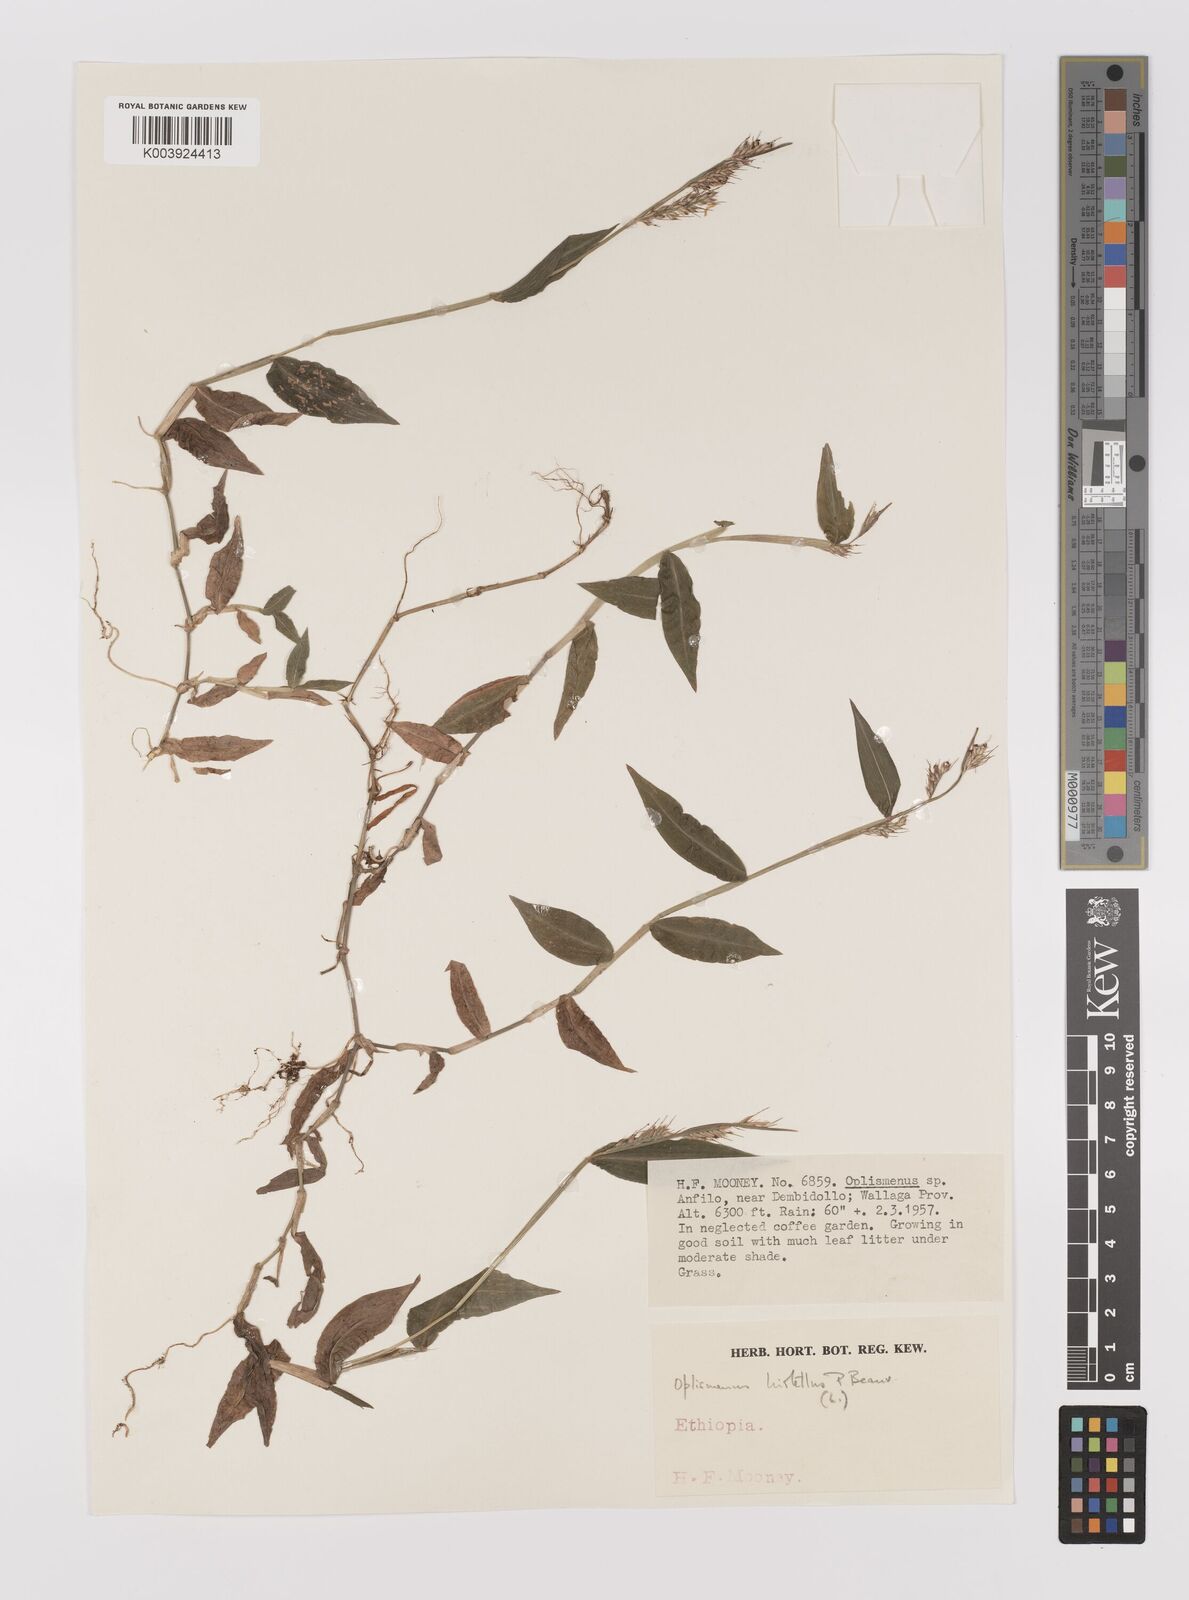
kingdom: Plantae
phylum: Tracheophyta
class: Liliopsida
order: Poales
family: Poaceae
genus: Oplismenus
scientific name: Oplismenus hirtellus
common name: Basketgrass
